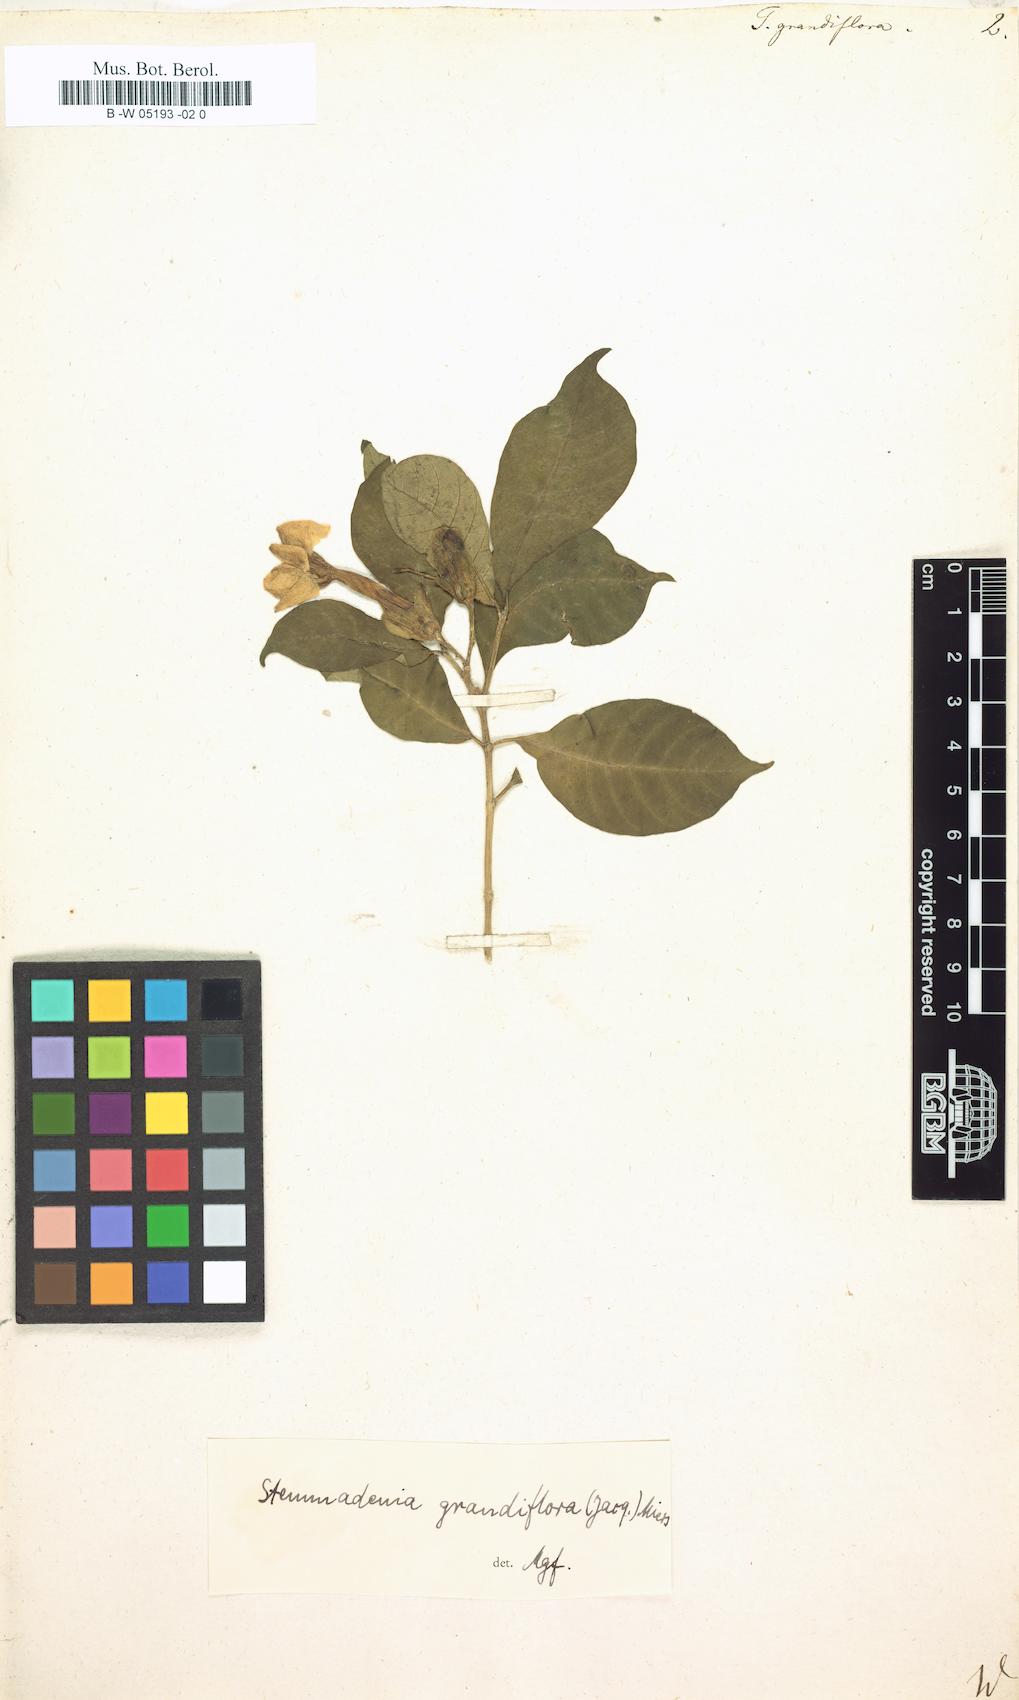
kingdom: Plantae
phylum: Tracheophyta
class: Magnoliopsida
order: Gentianales
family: Apocynaceae
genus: Tabernaemontana
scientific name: Tabernaemontana grandiflora
